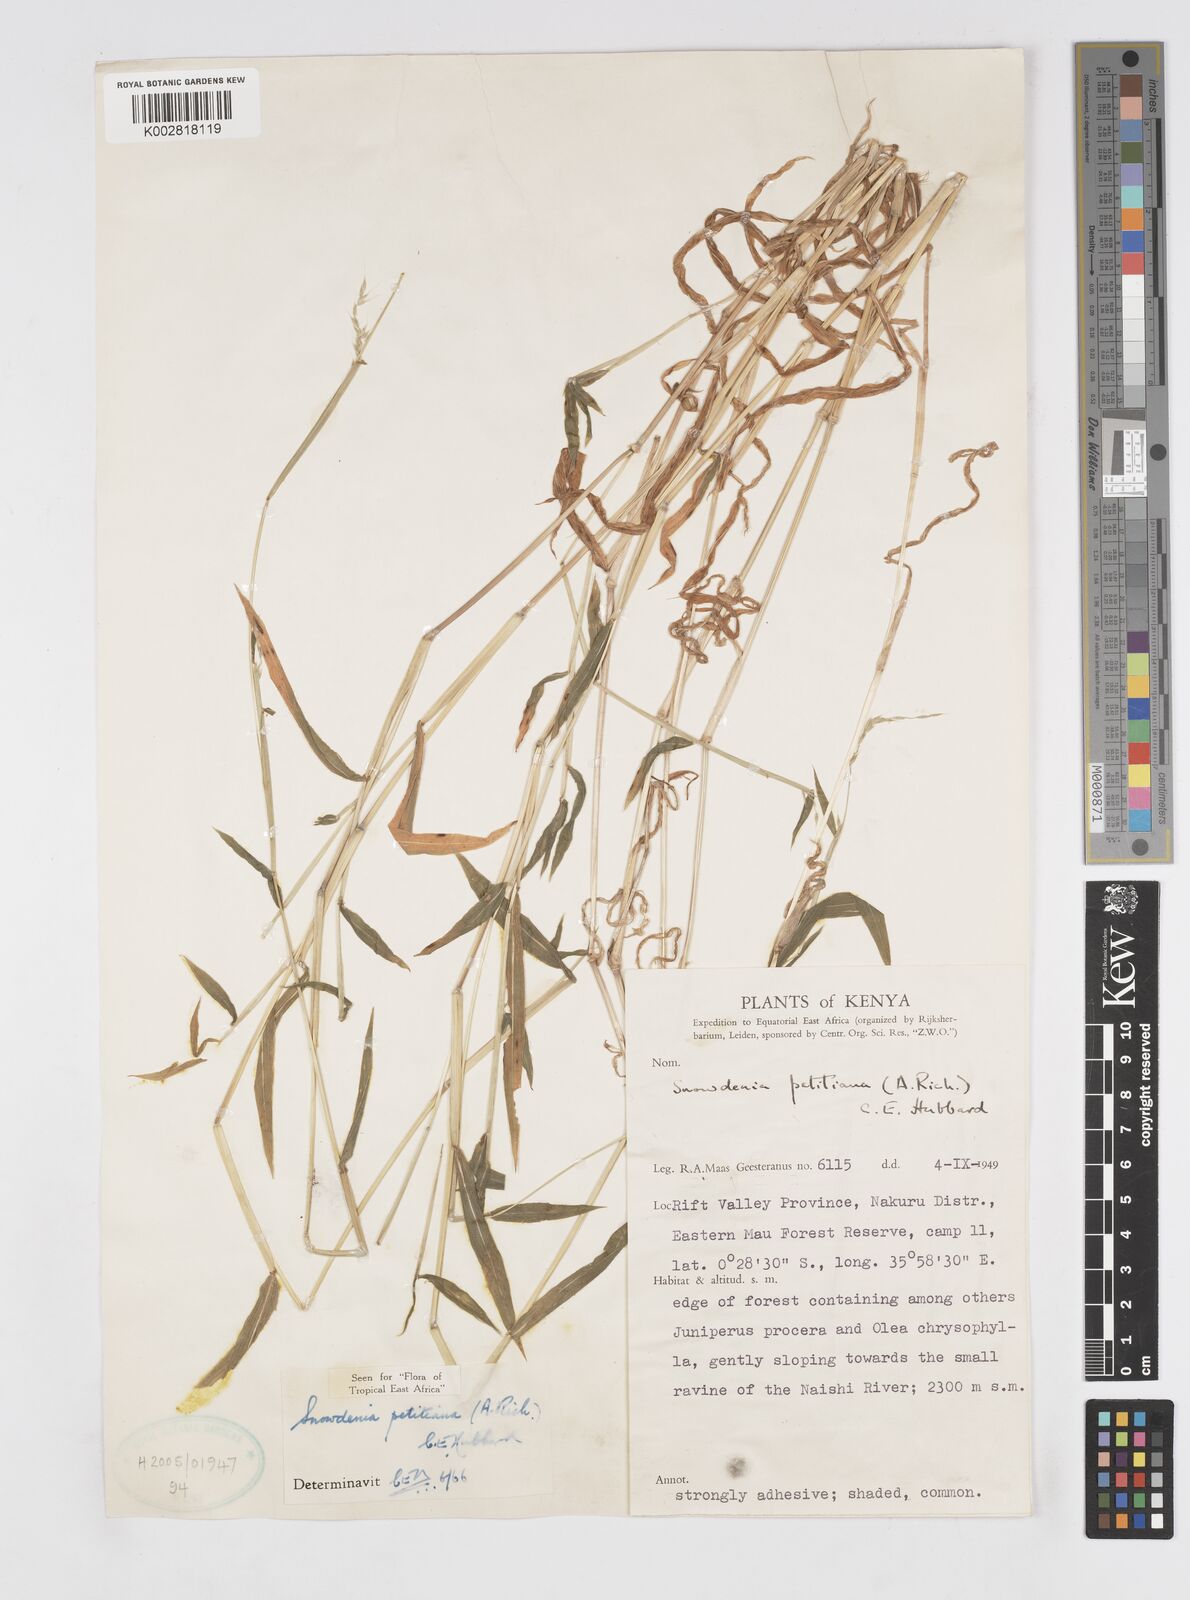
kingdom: Plantae
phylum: Tracheophyta
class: Liliopsida
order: Poales
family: Poaceae
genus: Snowdenia
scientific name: Snowdenia petitiana
